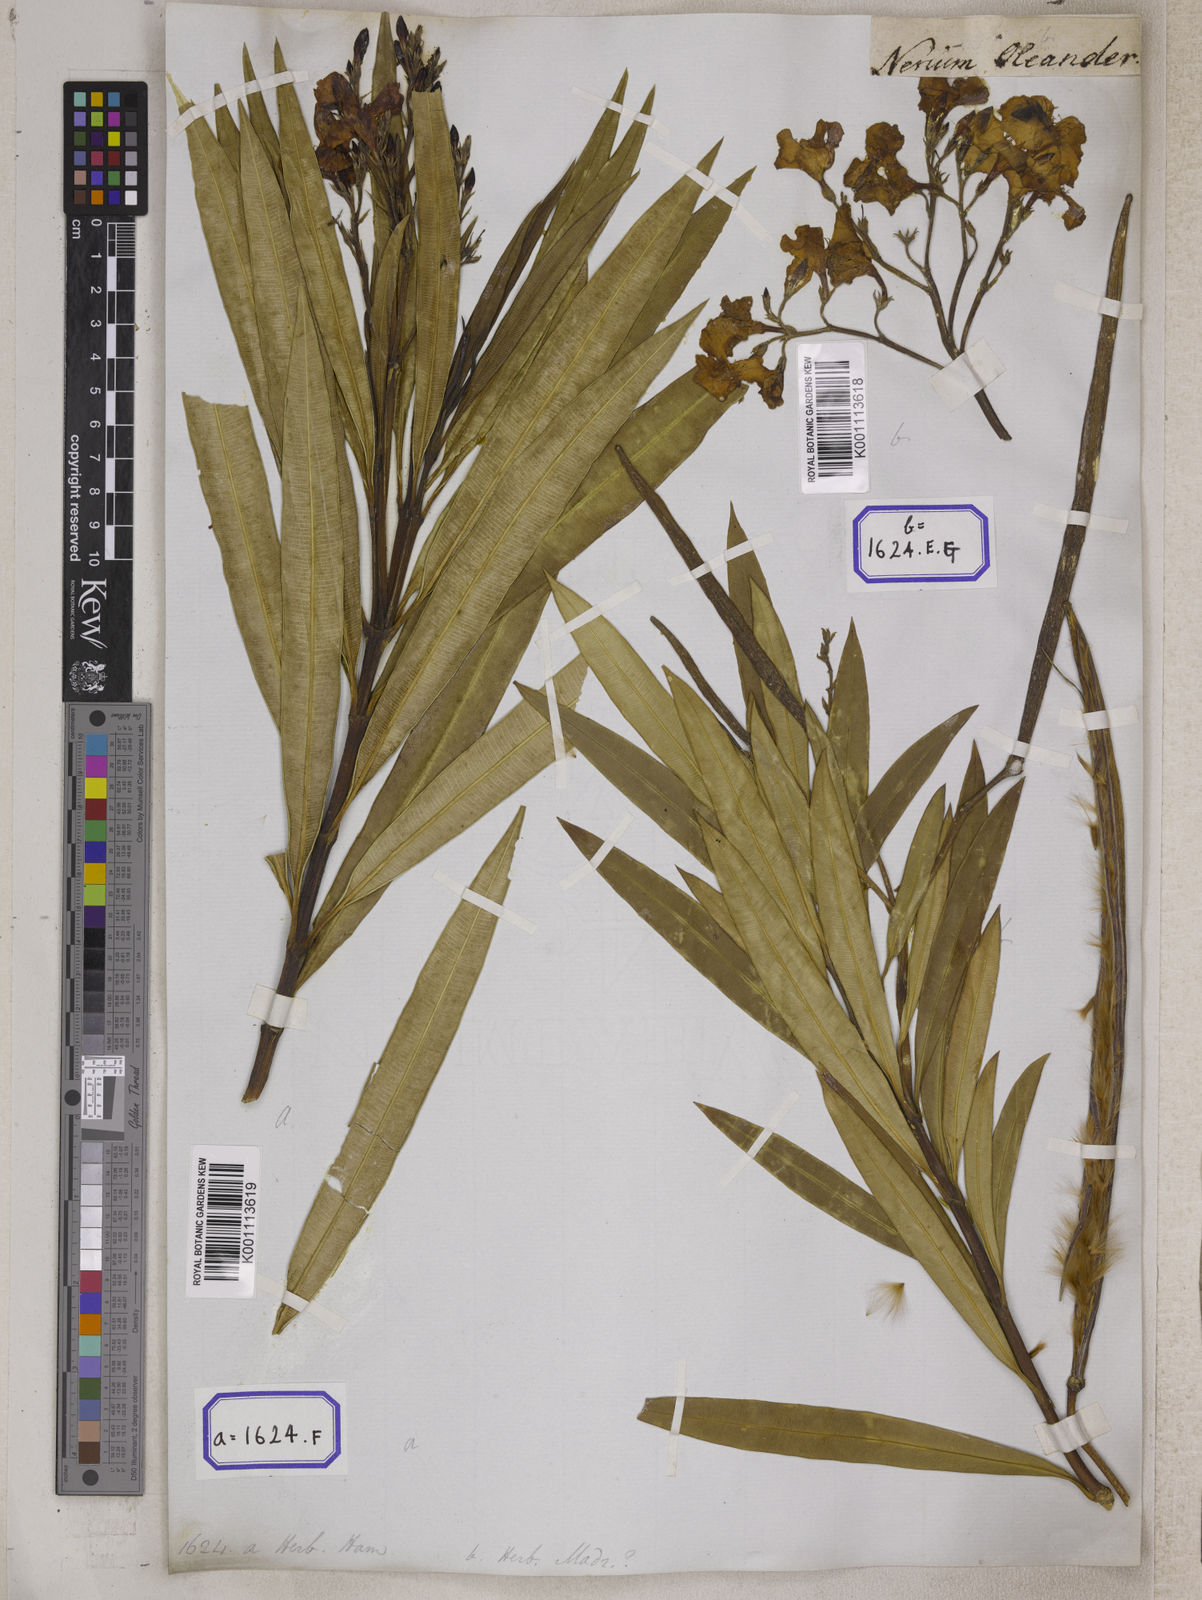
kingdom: Plantae
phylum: Tracheophyta
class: Magnoliopsida
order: Gentianales
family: Apocynaceae
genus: Nerium
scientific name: Nerium indicum
